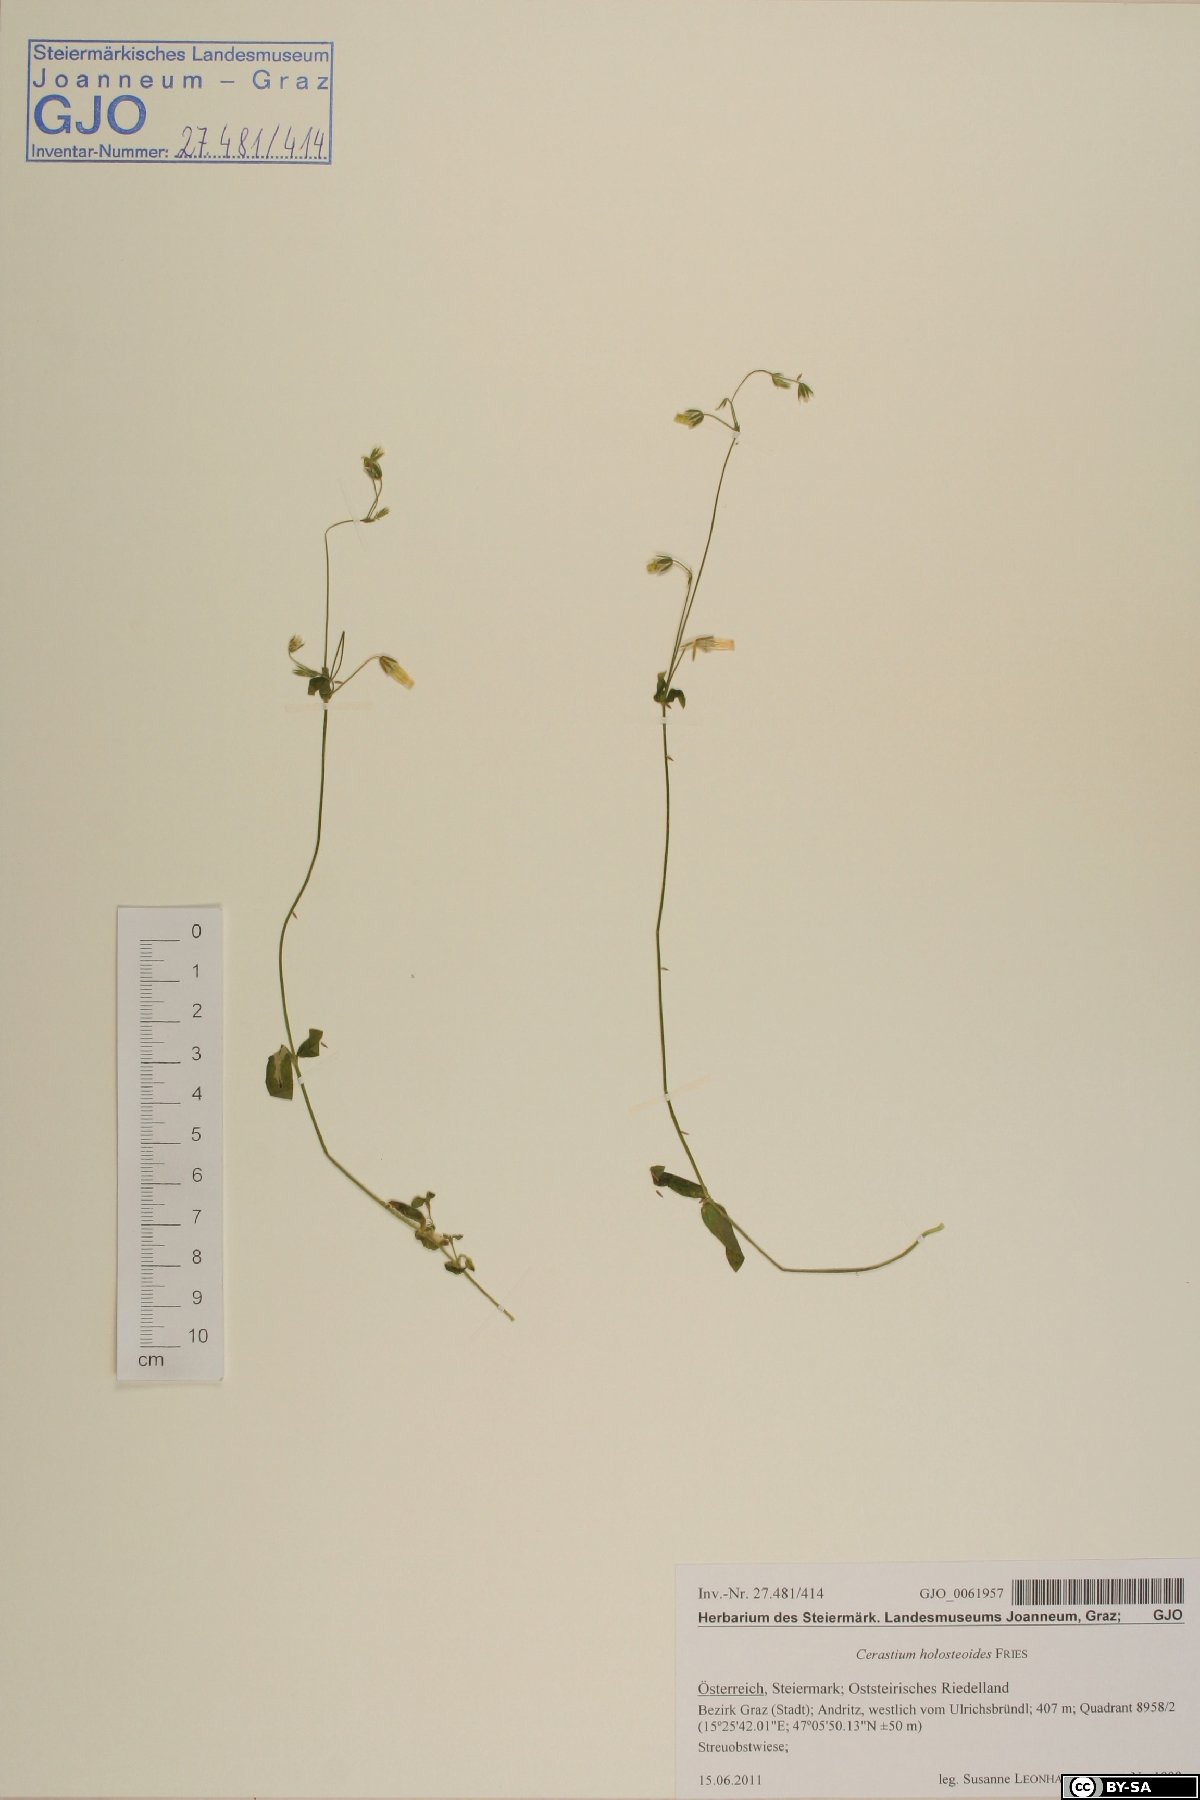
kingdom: Plantae
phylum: Tracheophyta
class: Magnoliopsida
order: Caryophyllales
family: Caryophyllaceae
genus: Cerastium
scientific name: Cerastium holosteoides
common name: Big chickweed
